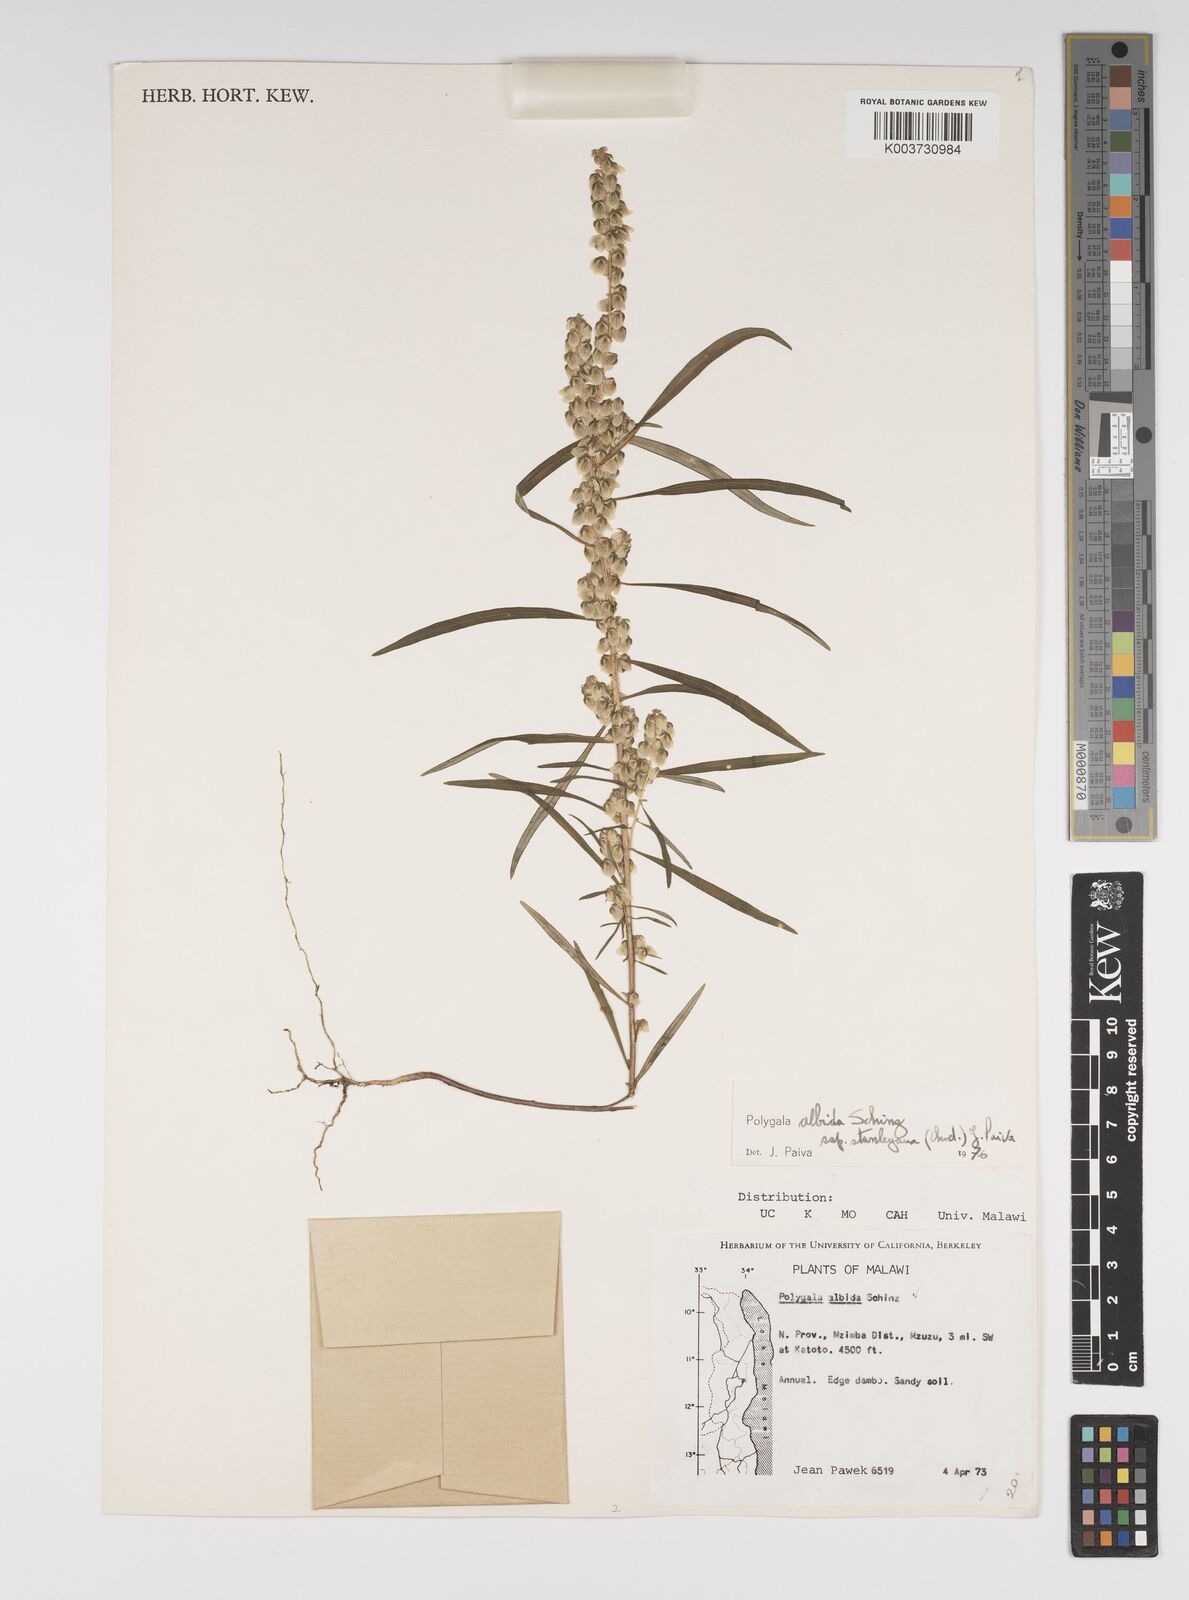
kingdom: Plantae
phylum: Tracheophyta
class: Magnoliopsida
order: Fabales
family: Polygalaceae
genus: Polygala
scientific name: Polygala albida
